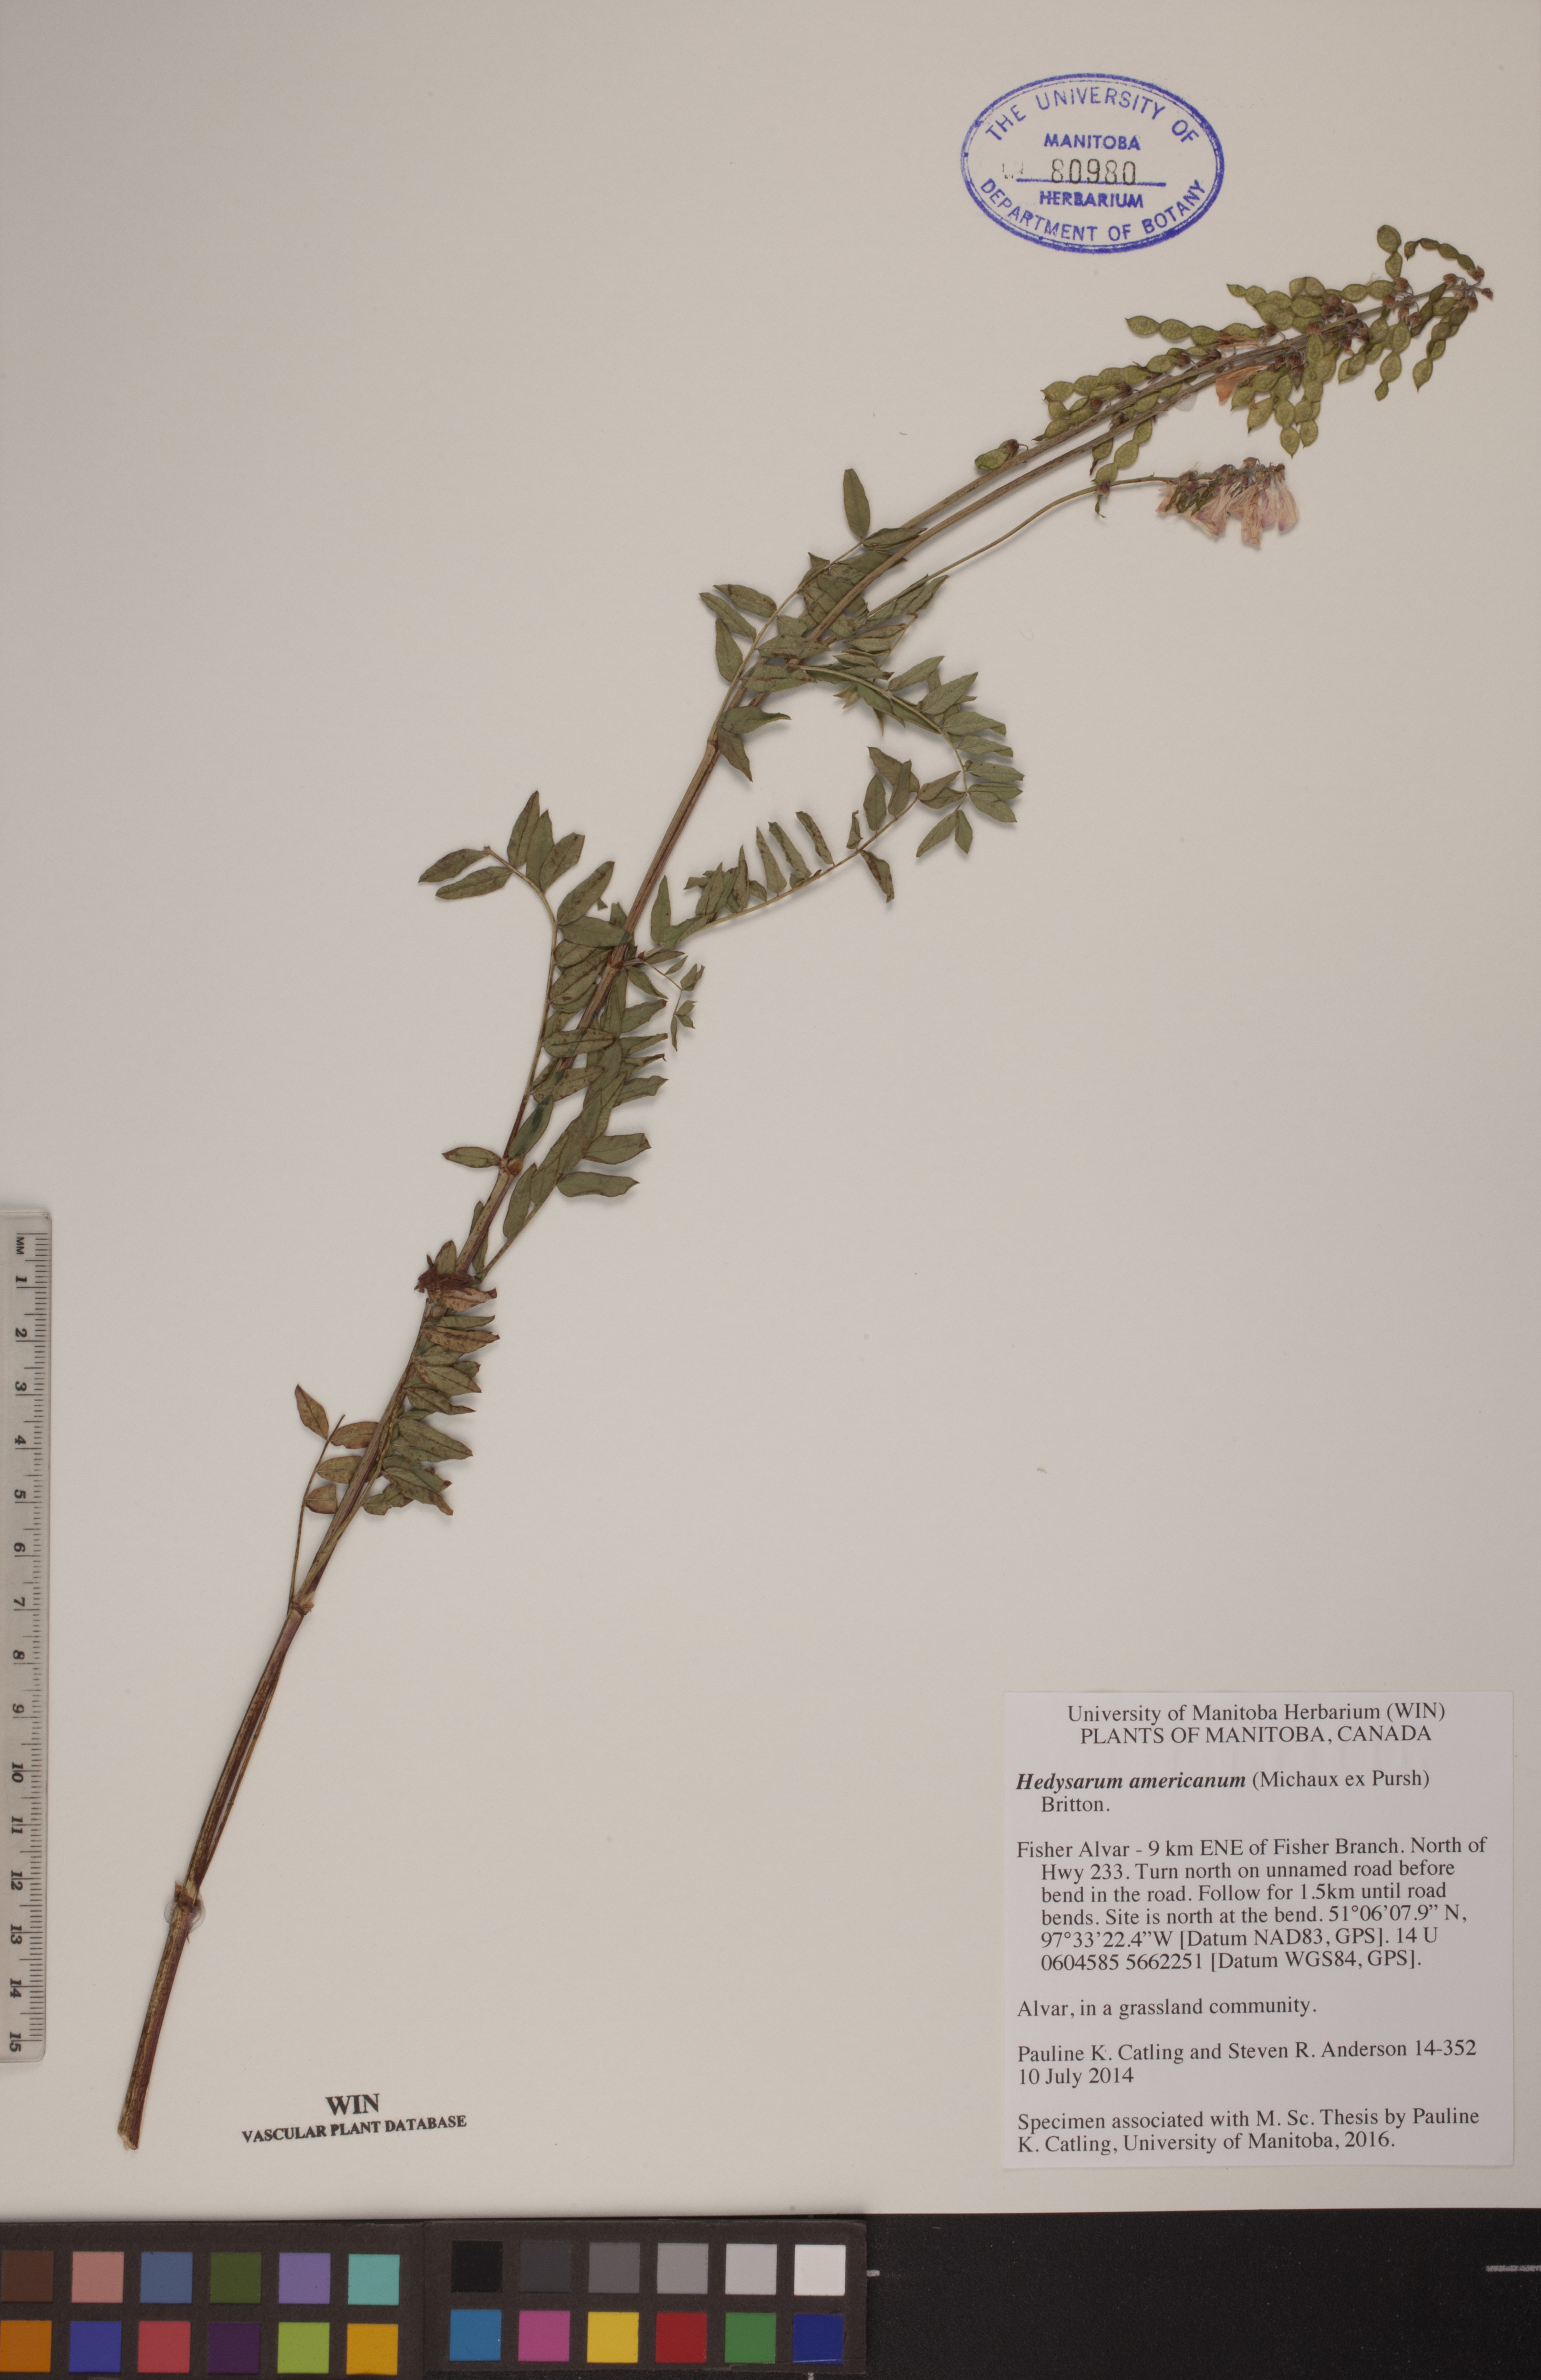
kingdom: Plantae
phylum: Tracheophyta
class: Magnoliopsida
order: Fabales
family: Fabaceae
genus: Hedysarum
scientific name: Hedysarum americanum
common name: Alpine hedysarum
